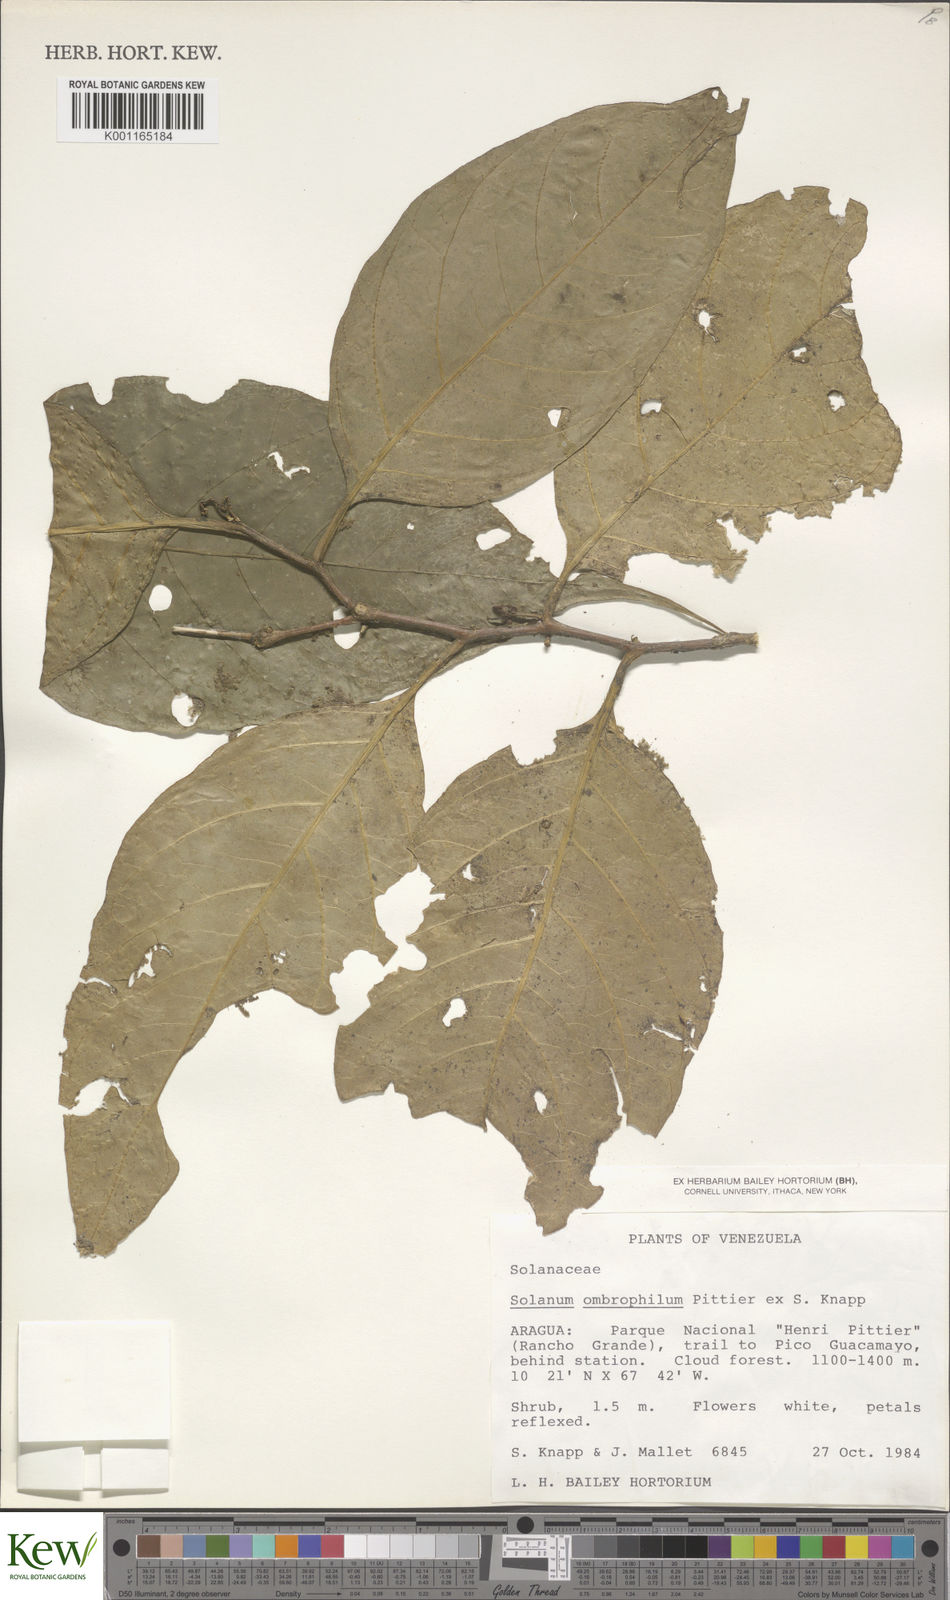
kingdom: Plantae
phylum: Tracheophyta
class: Magnoliopsida
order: Solanales
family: Solanaceae
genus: Solanum
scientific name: Solanum ombrophilum
